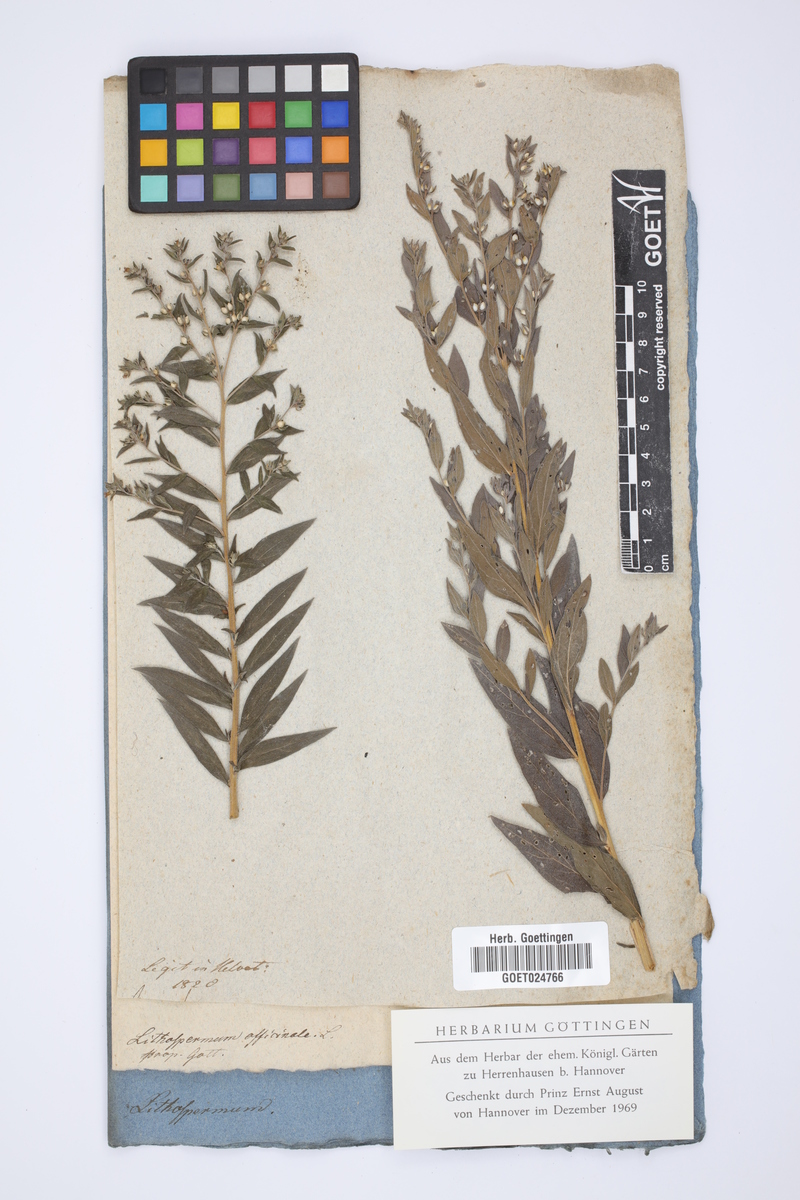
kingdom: Plantae
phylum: Tracheophyta
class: Magnoliopsida
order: Boraginales
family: Boraginaceae
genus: Lithospermum
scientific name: Lithospermum officinale
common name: Common gromwell
